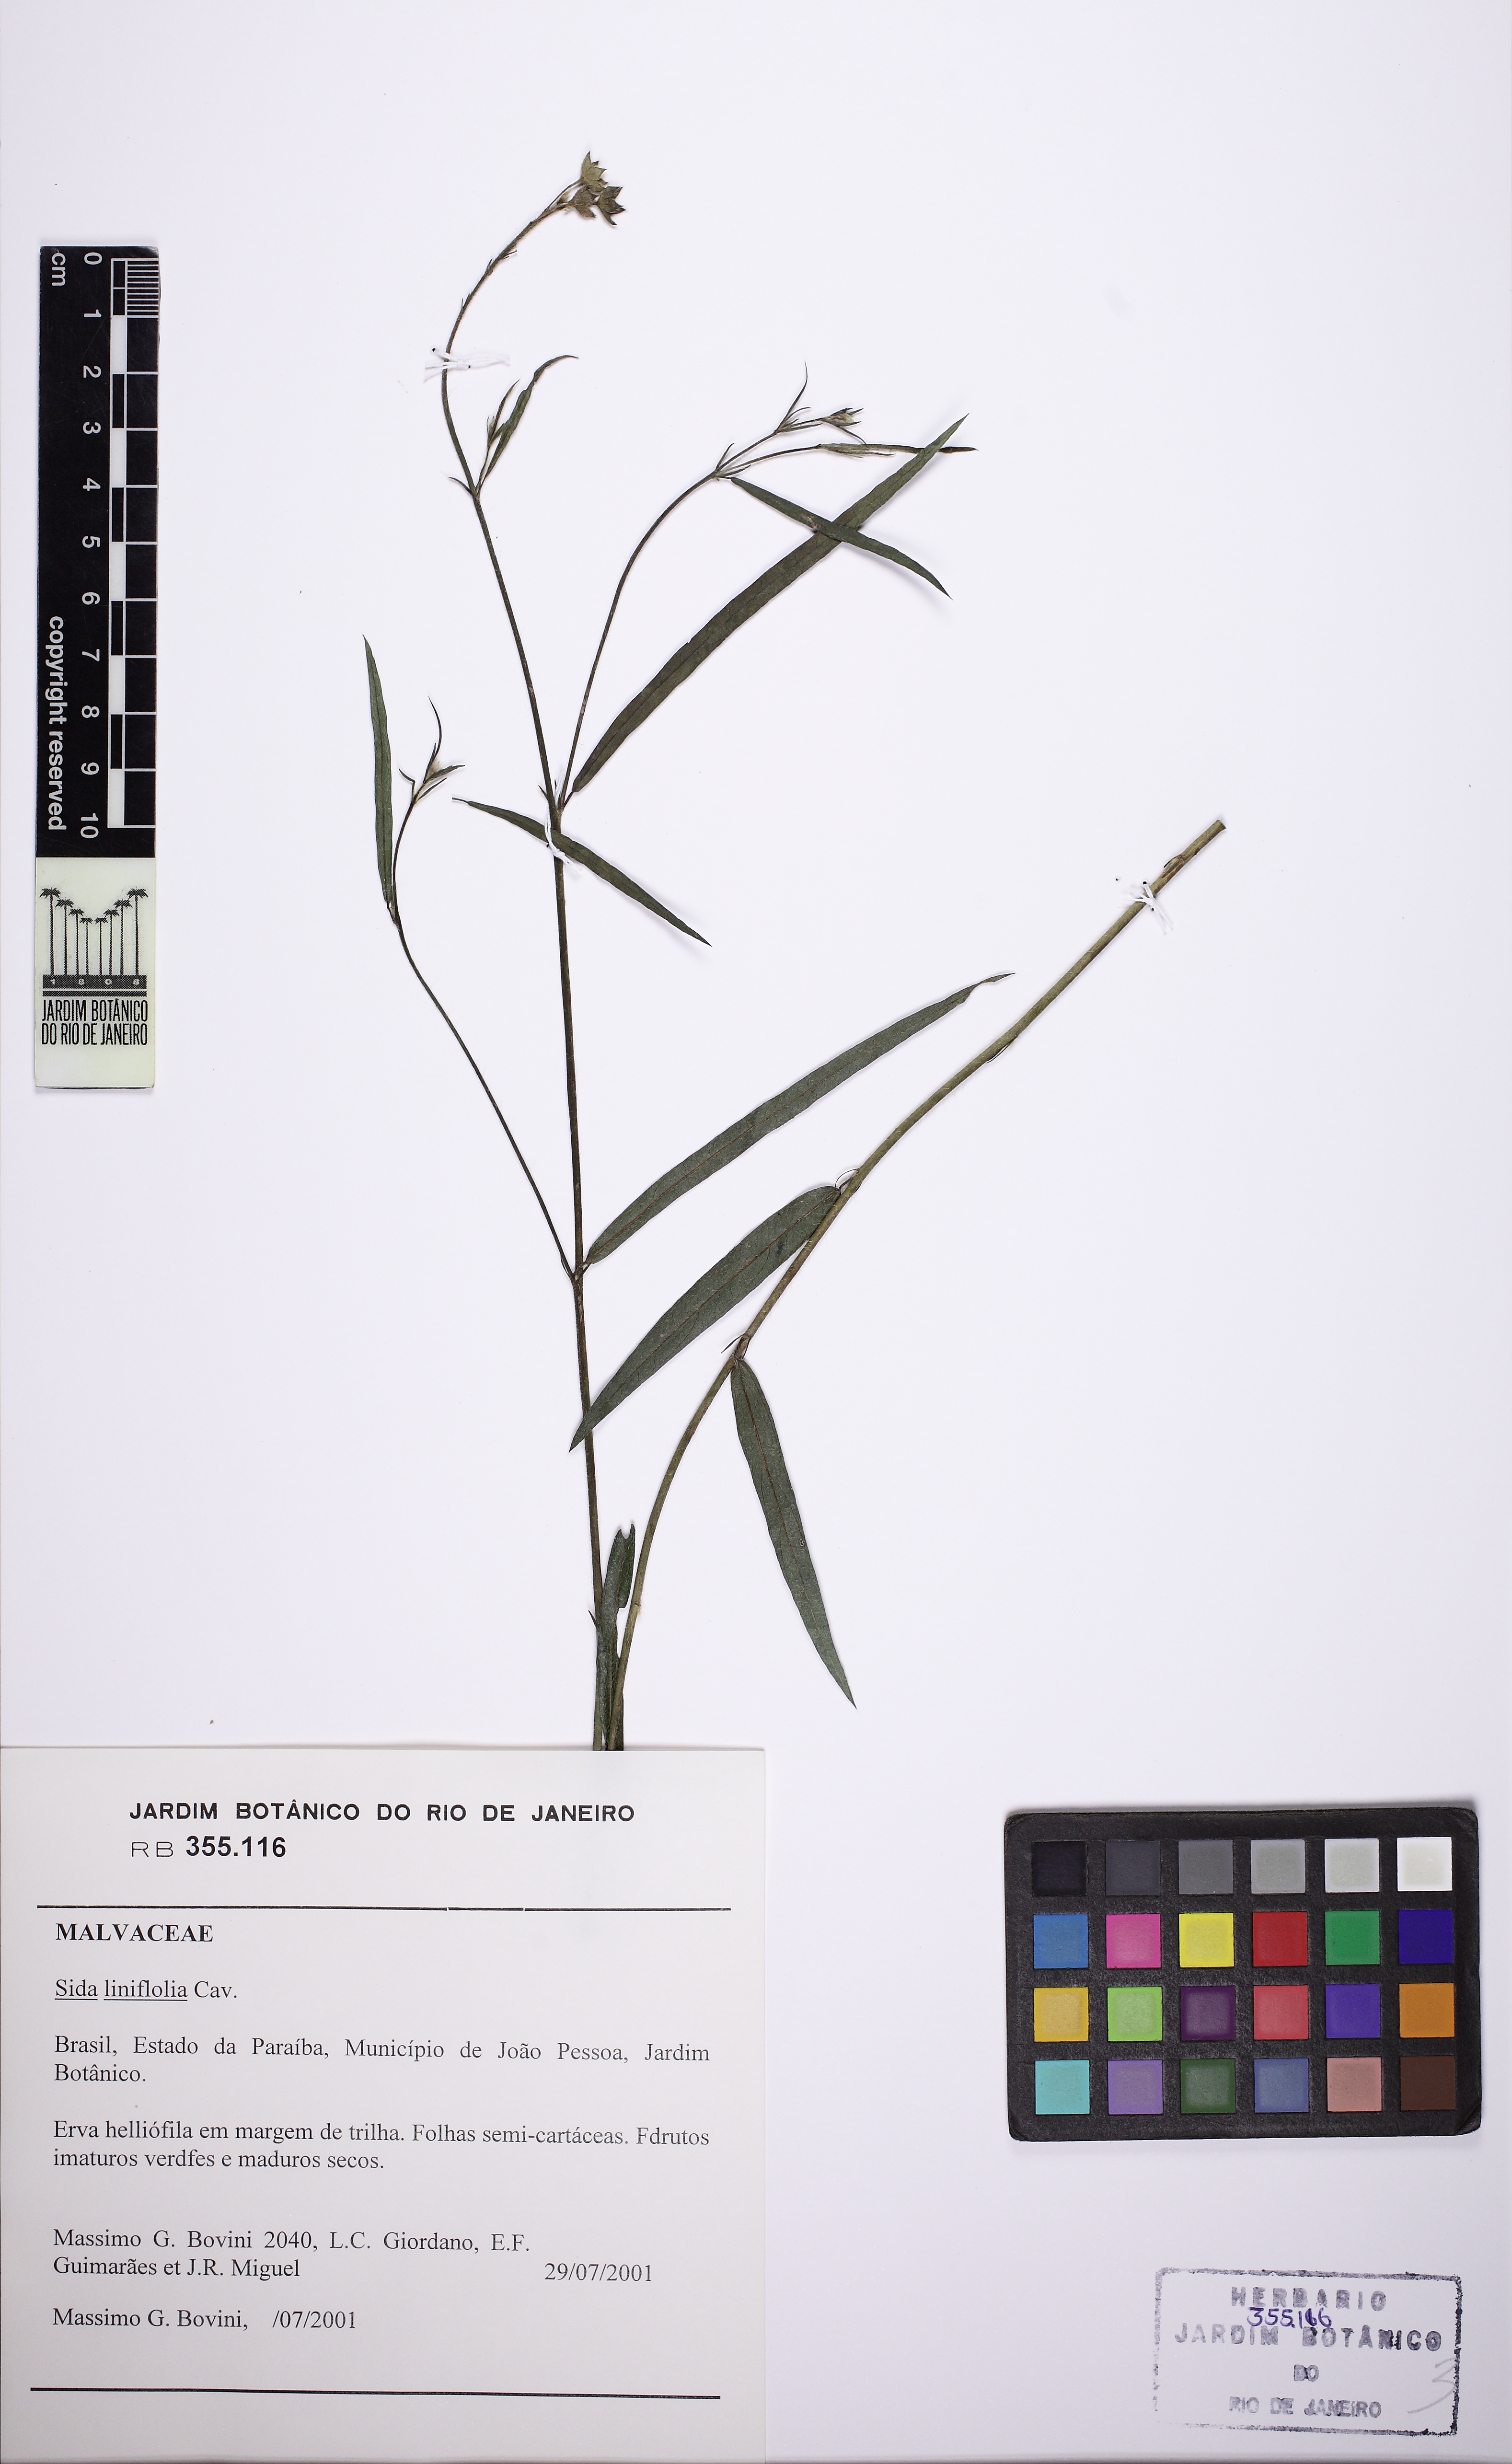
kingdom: Plantae
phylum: Tracheophyta
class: Magnoliopsida
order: Malvales
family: Malvaceae
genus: Sida
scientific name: Sida linifolia
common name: Flaxleaf fanpetals
